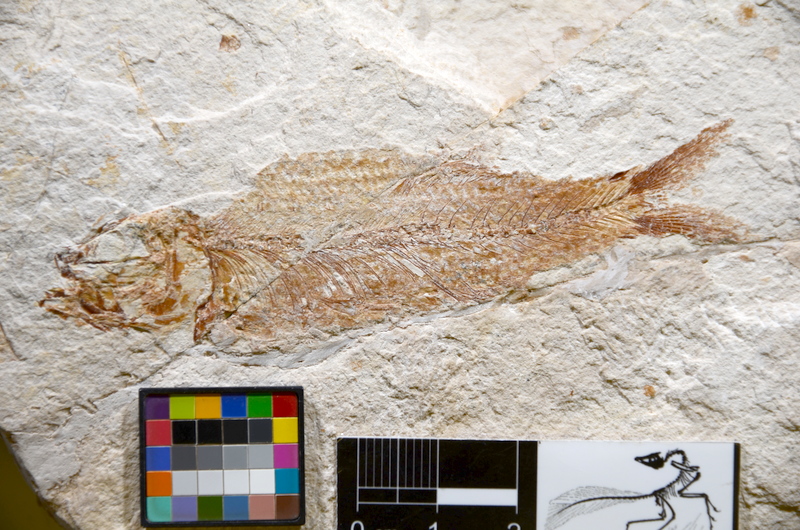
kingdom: Animalia
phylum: Chordata
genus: Ascalabothrissops
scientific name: Ascalabothrissops voelkli
